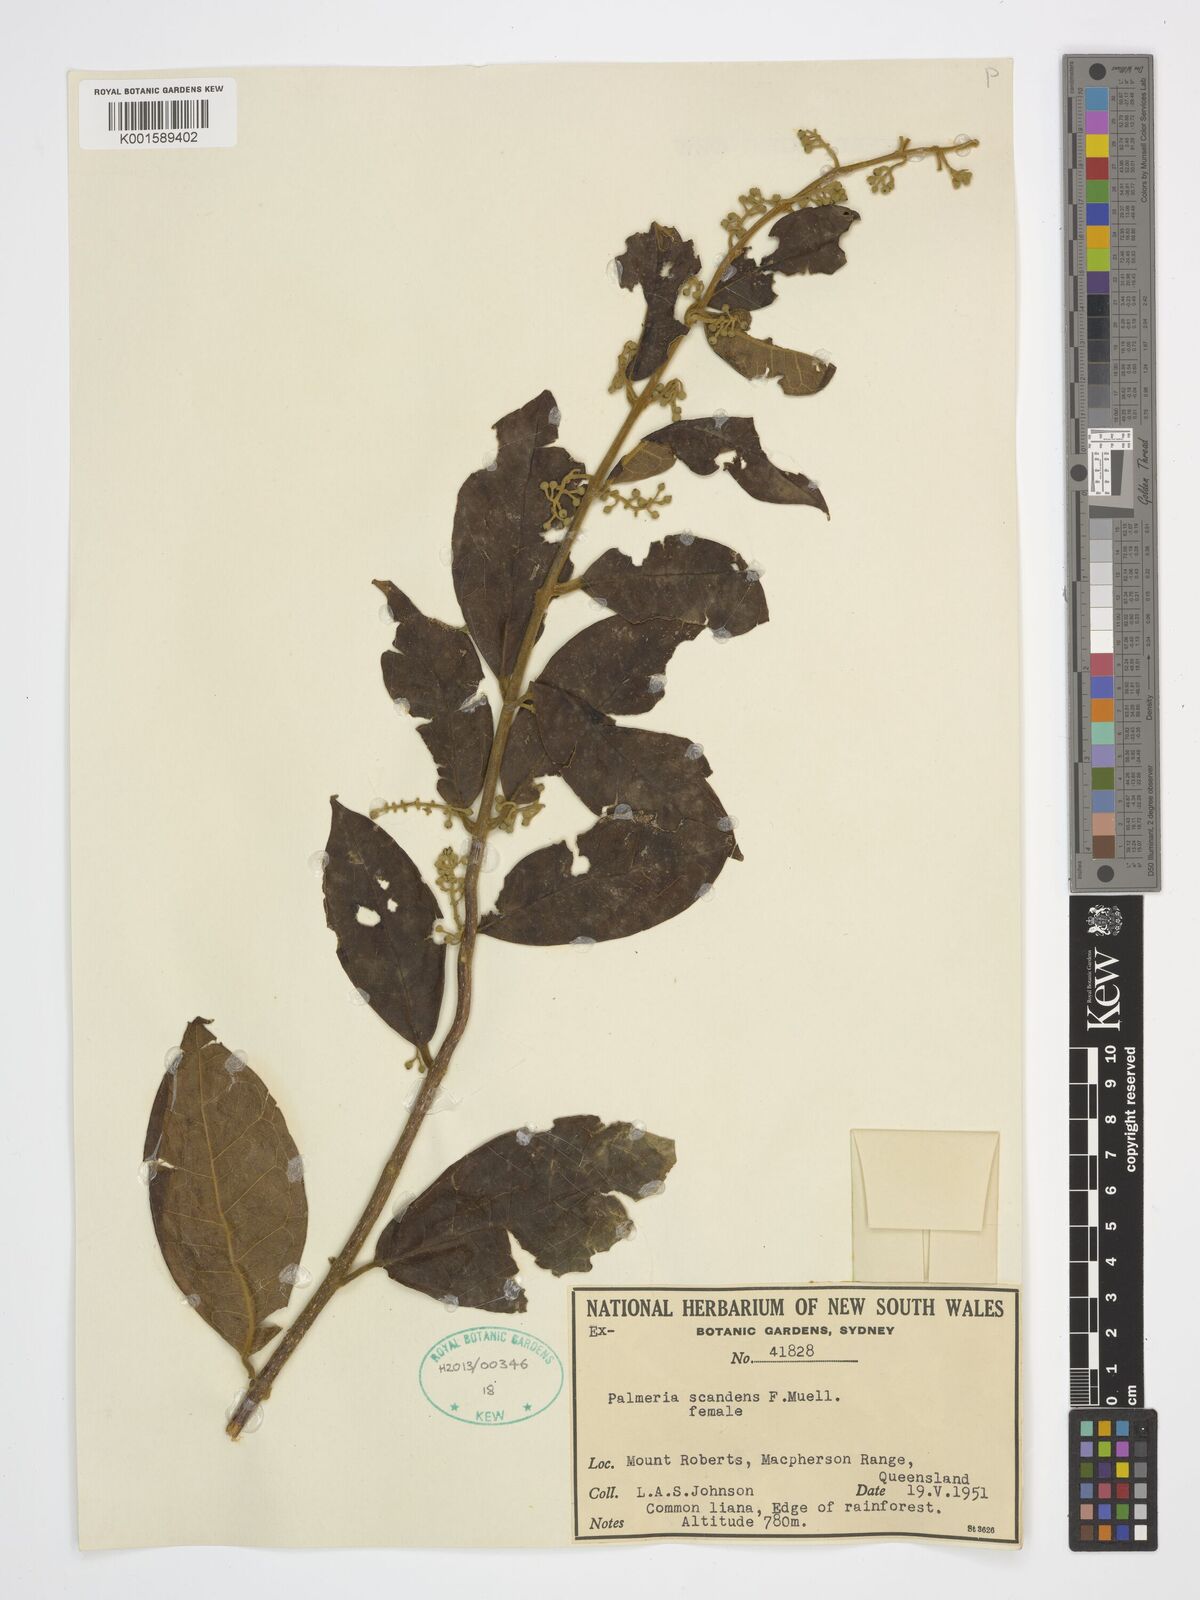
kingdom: Plantae
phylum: Tracheophyta
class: Magnoliopsida
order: Laurales
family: Monimiaceae
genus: Palmeria
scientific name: Palmeria scandens
